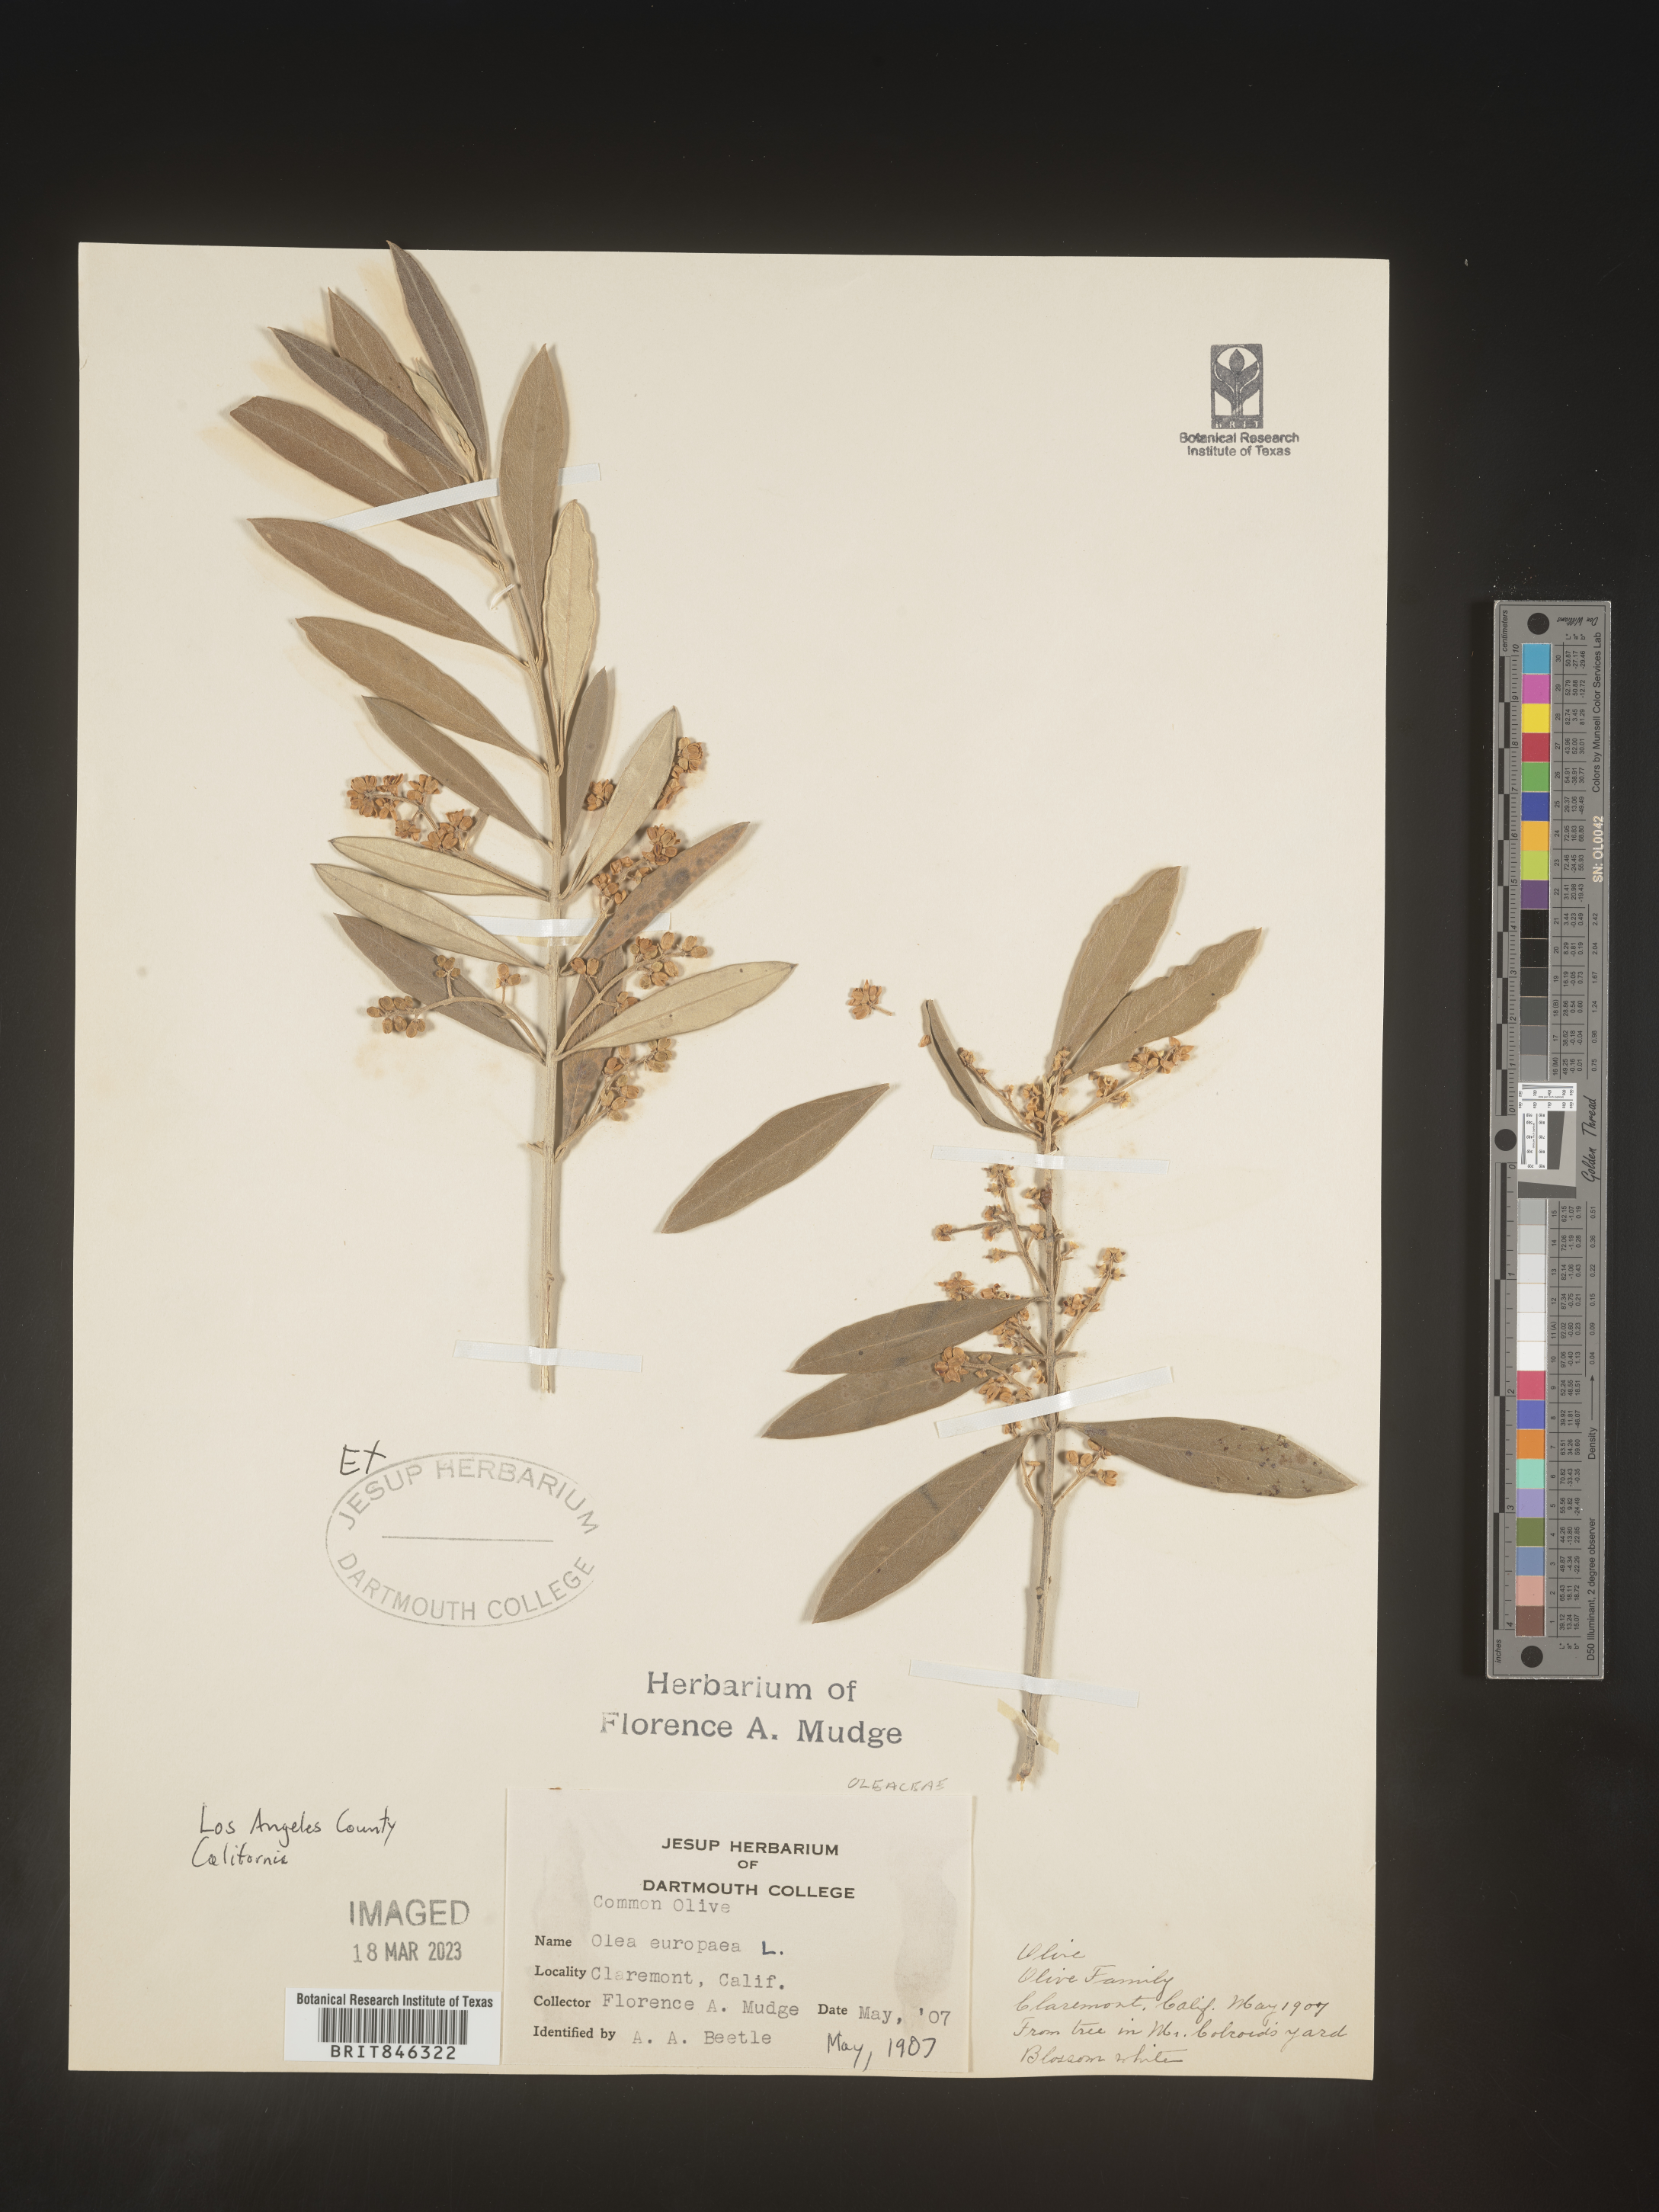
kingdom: Plantae
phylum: Tracheophyta
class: Magnoliopsida
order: Lamiales
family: Oleaceae
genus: Olea
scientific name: Olea
